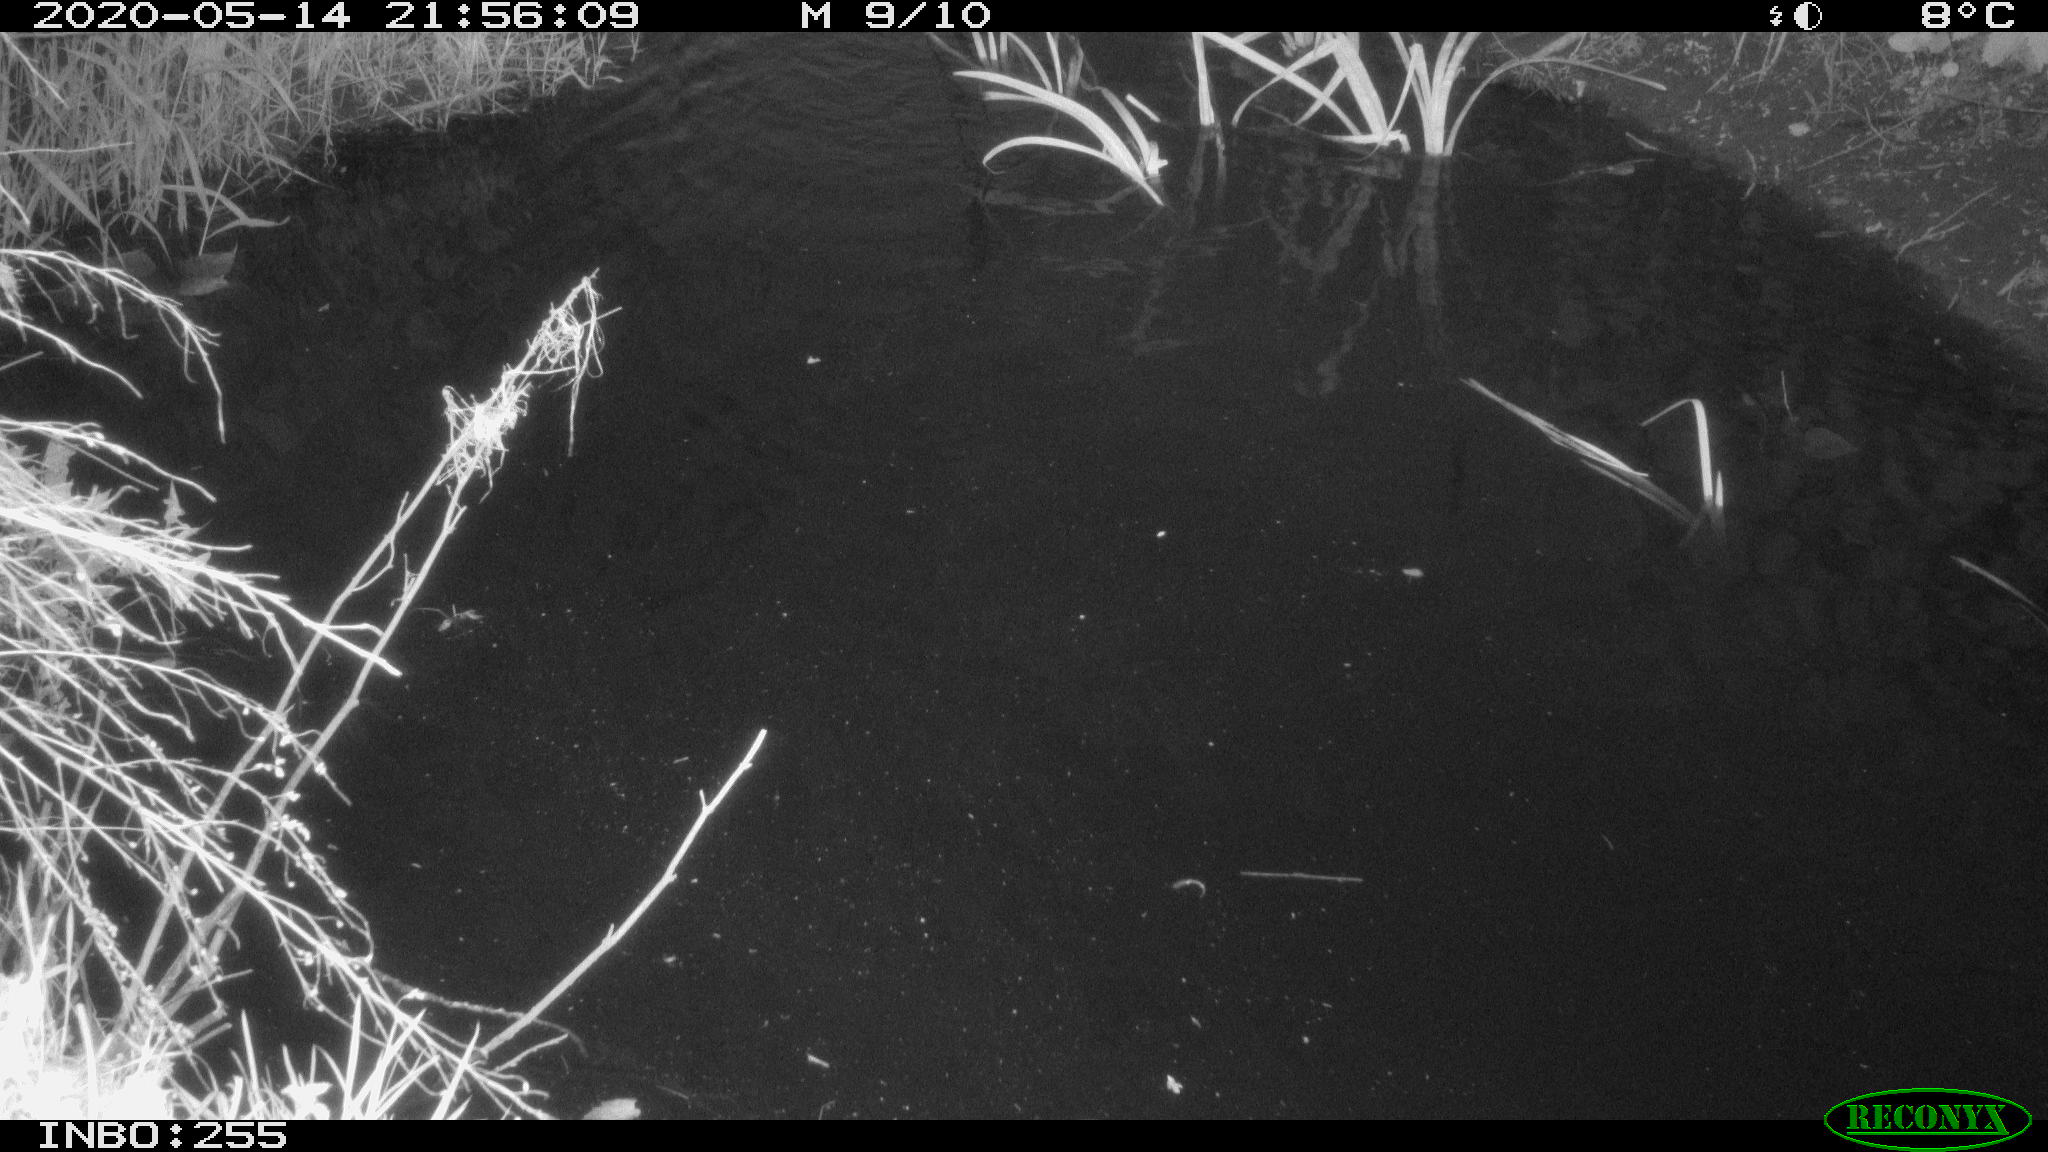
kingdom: Animalia
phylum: Chordata
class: Aves
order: Anseriformes
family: Anatidae
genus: Anas
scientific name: Anas platyrhynchos
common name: Mallard
